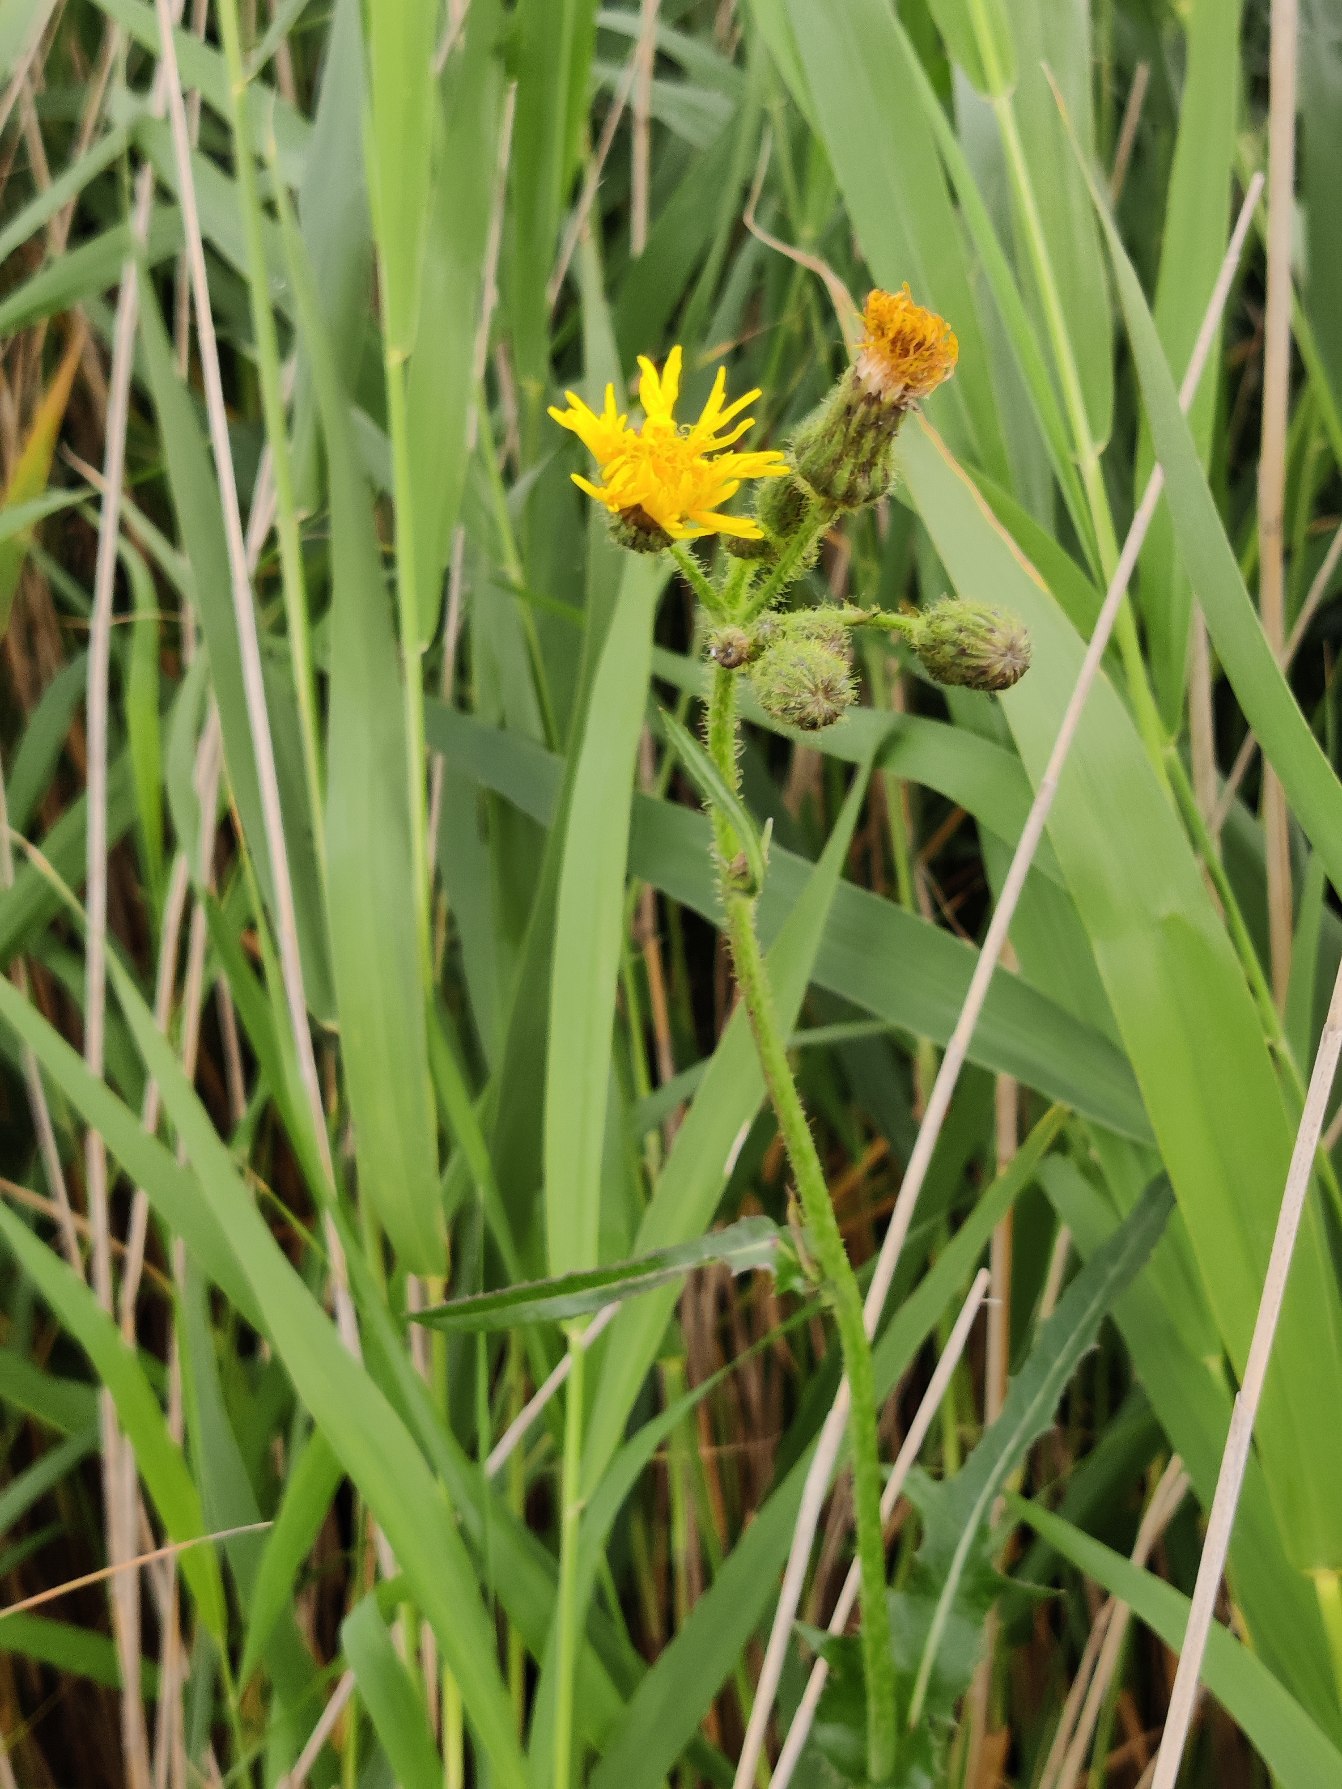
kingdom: Plantae
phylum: Tracheophyta
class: Magnoliopsida
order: Asterales
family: Asteraceae
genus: Sonchus
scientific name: Sonchus arvensis
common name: Ager-svinemælk
